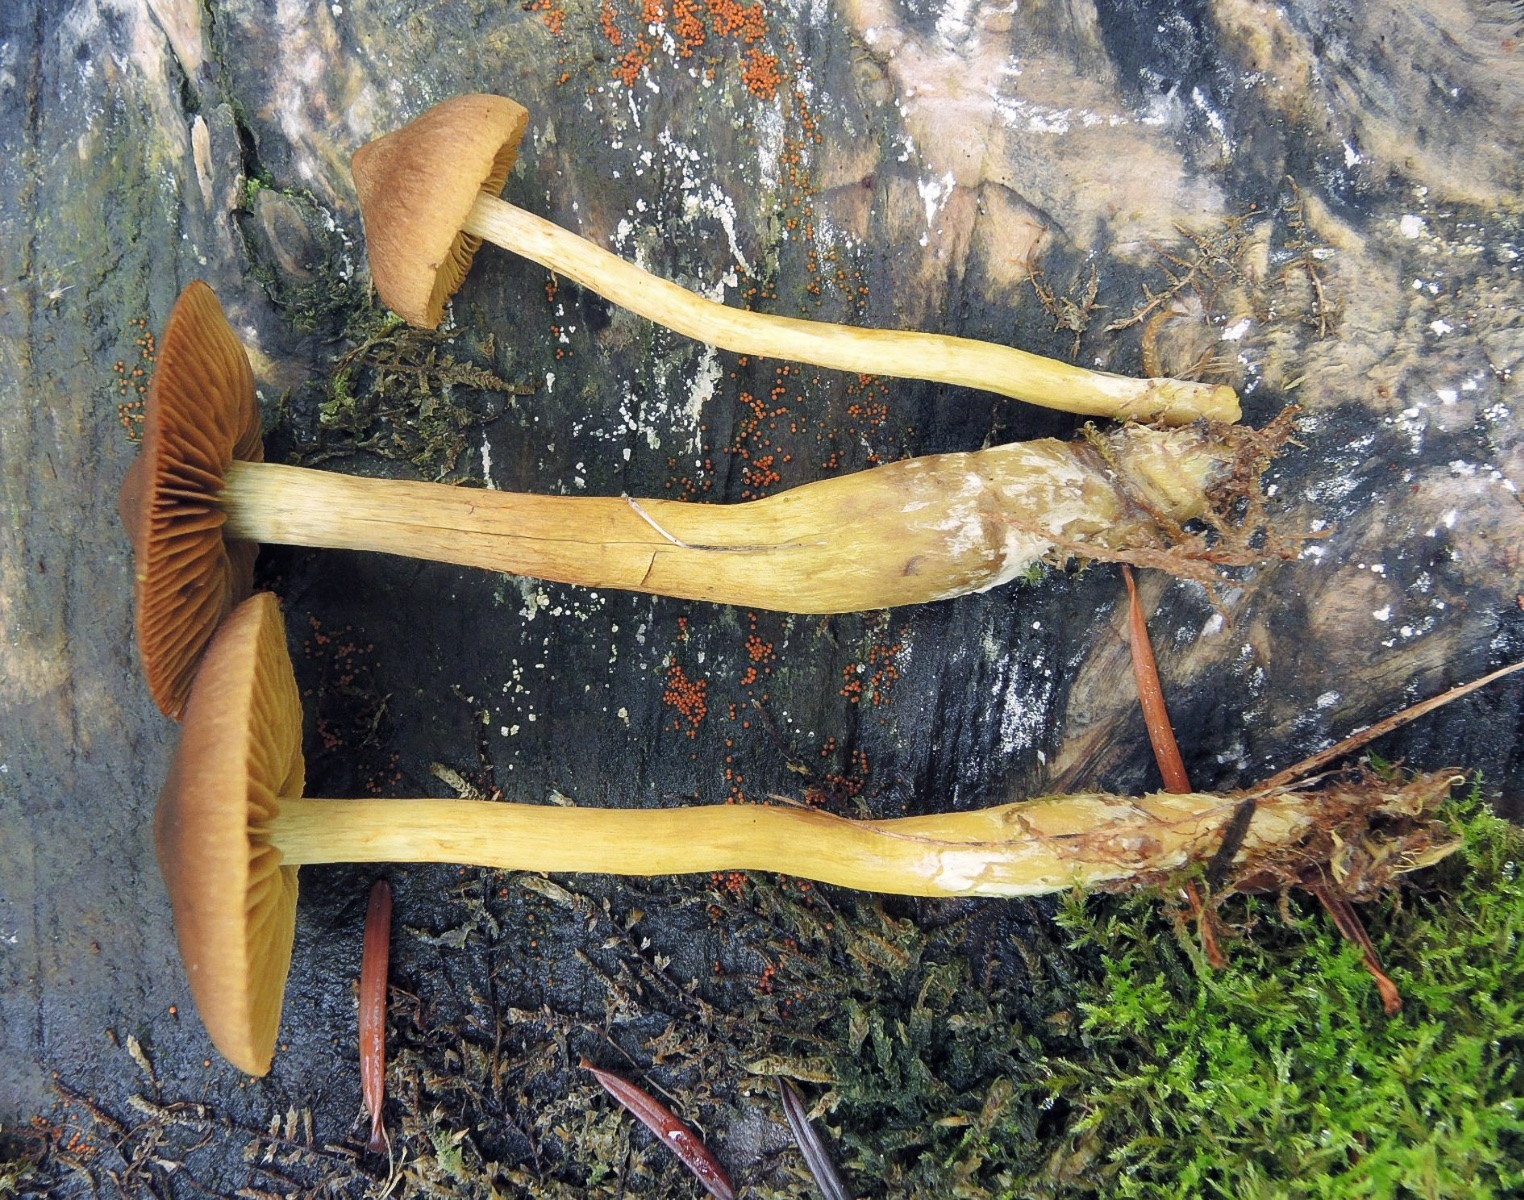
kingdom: Fungi
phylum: Basidiomycota
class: Agaricomycetes
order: Agaricales
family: Cortinariaceae
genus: Cortinarius
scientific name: Cortinarius tillamookensis
